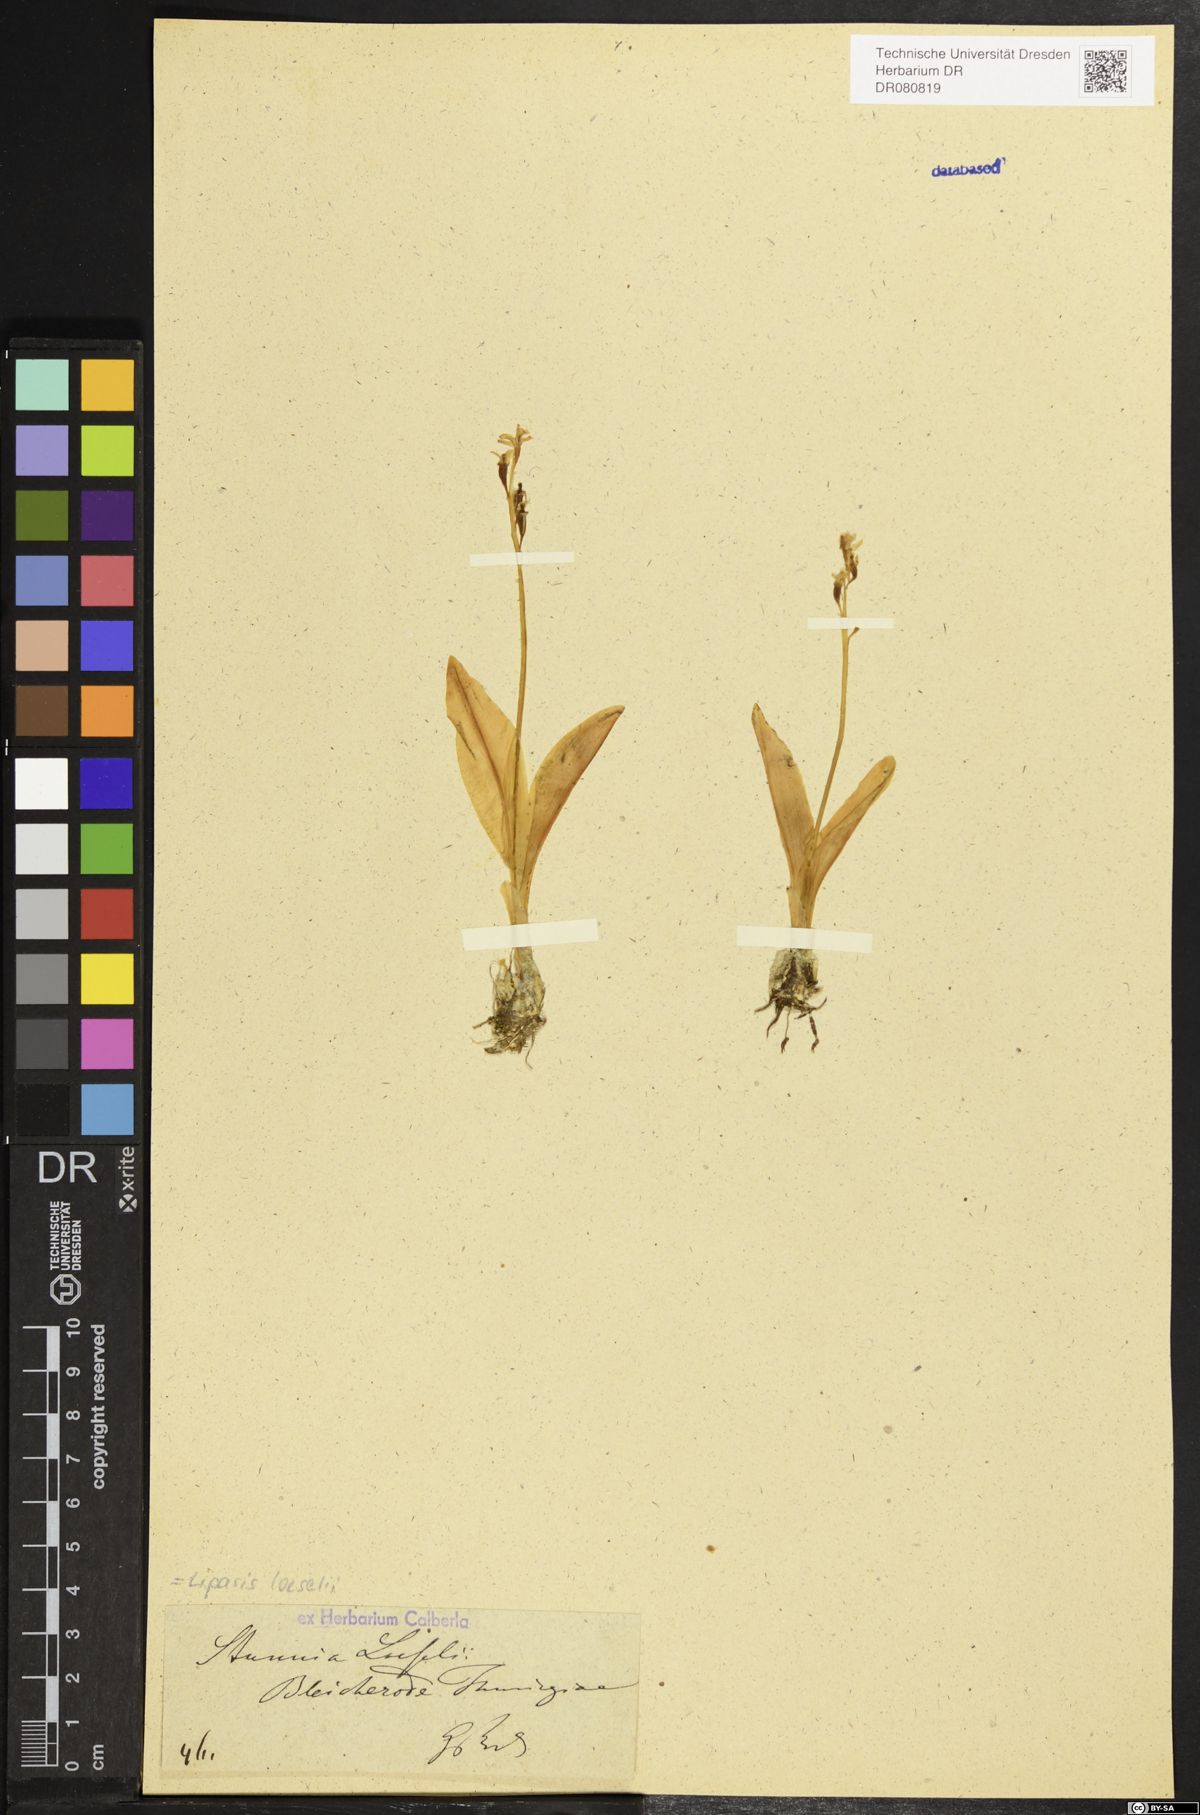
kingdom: Animalia
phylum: Arthropoda
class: Insecta
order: Coleoptera
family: Curculionidae
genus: Liparis
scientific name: Liparis loeselii
